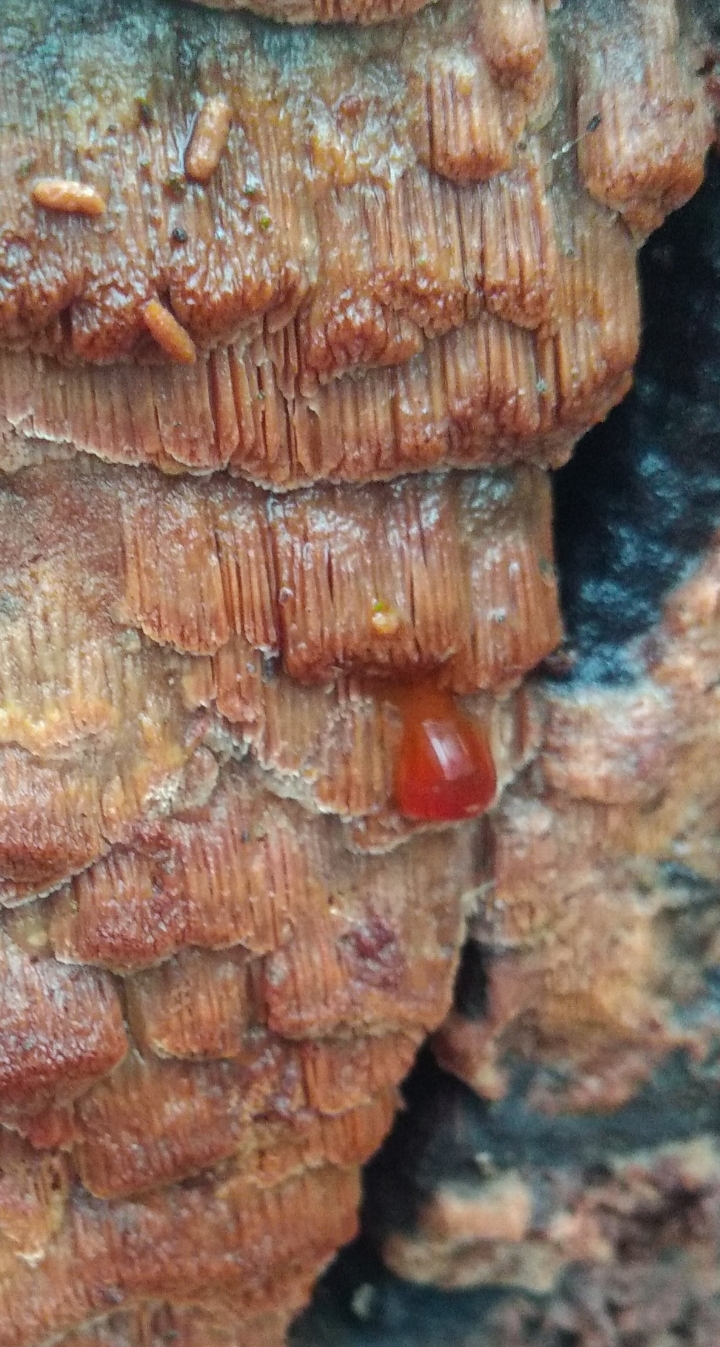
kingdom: Fungi
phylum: Basidiomycota
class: Agaricomycetes
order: Polyporales
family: Meruliaceae
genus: Mycoacia
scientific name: Mycoacia gilvescens
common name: rosa pastelporesvamp
